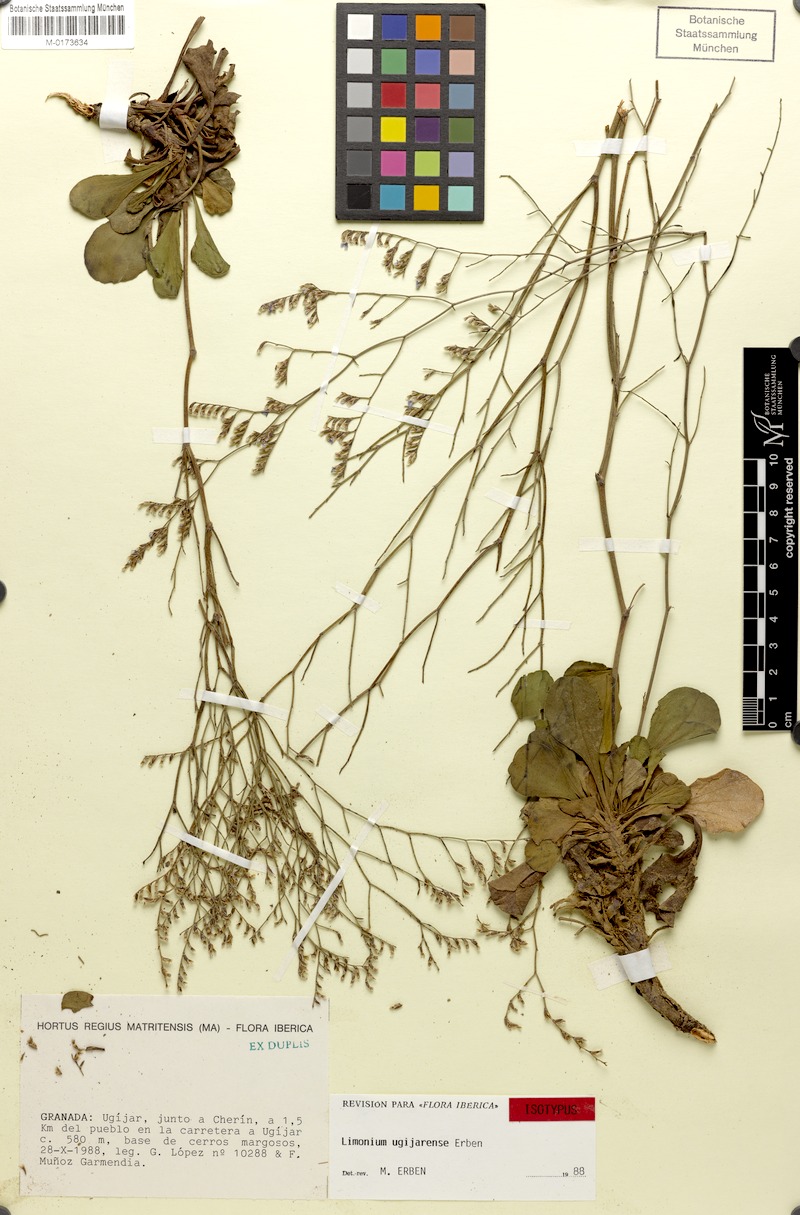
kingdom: Plantae
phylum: Tracheophyta
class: Magnoliopsida
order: Caryophyllales
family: Plumbaginaceae
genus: Limonium
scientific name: Limonium ugijarense
